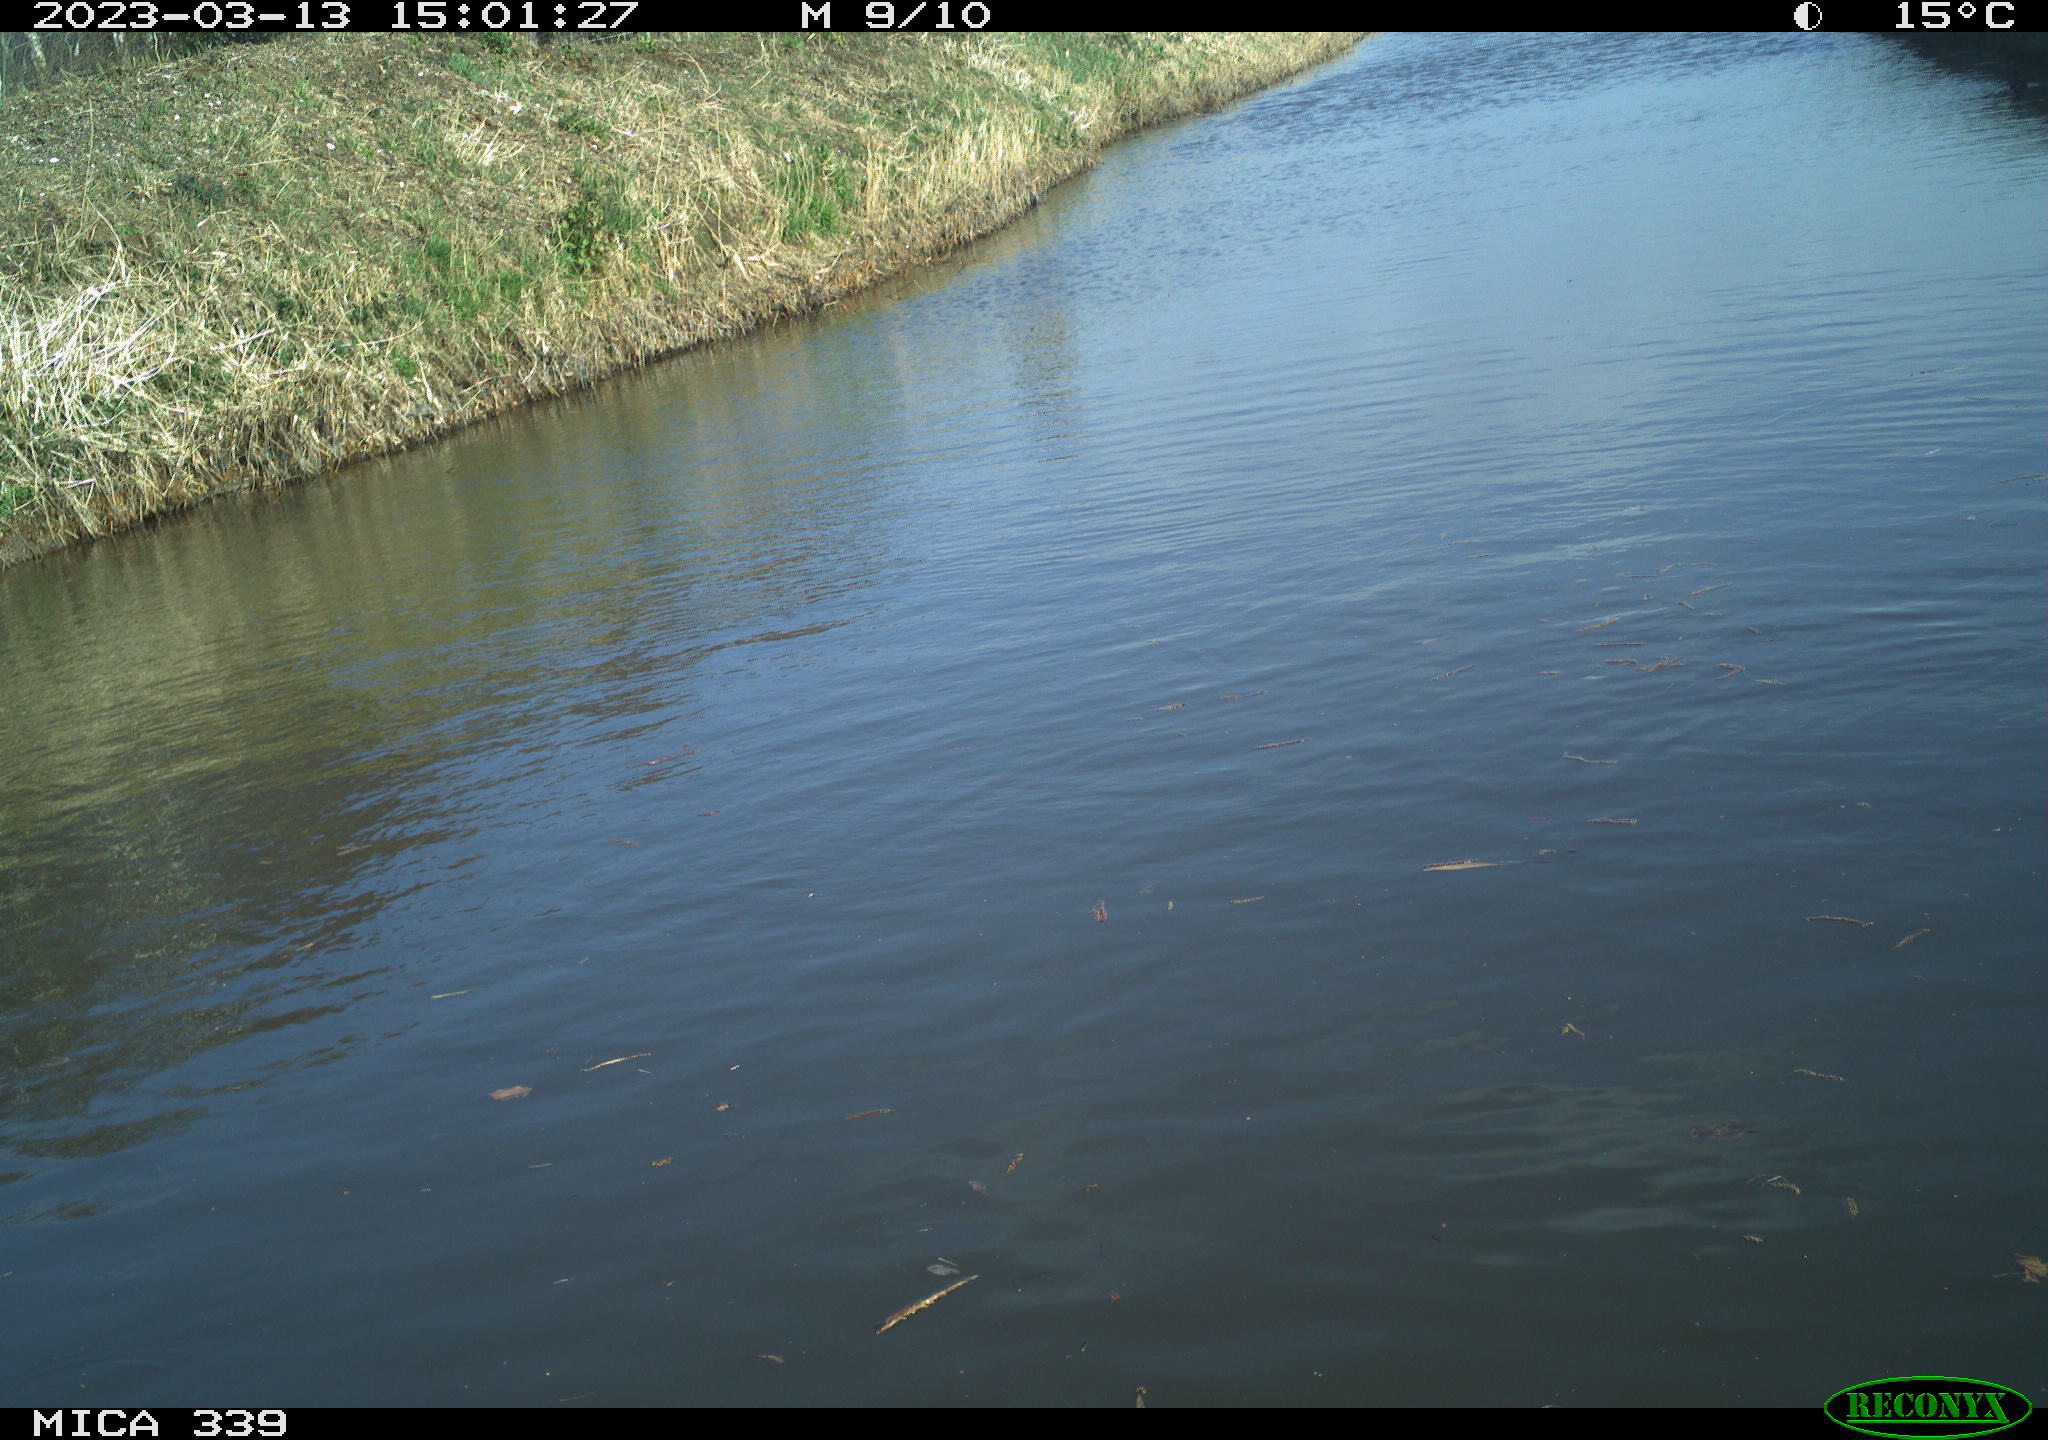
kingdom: Animalia
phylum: Chordata
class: Aves
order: Gruiformes
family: Rallidae
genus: Gallinula
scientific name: Gallinula chloropus
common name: Common moorhen
